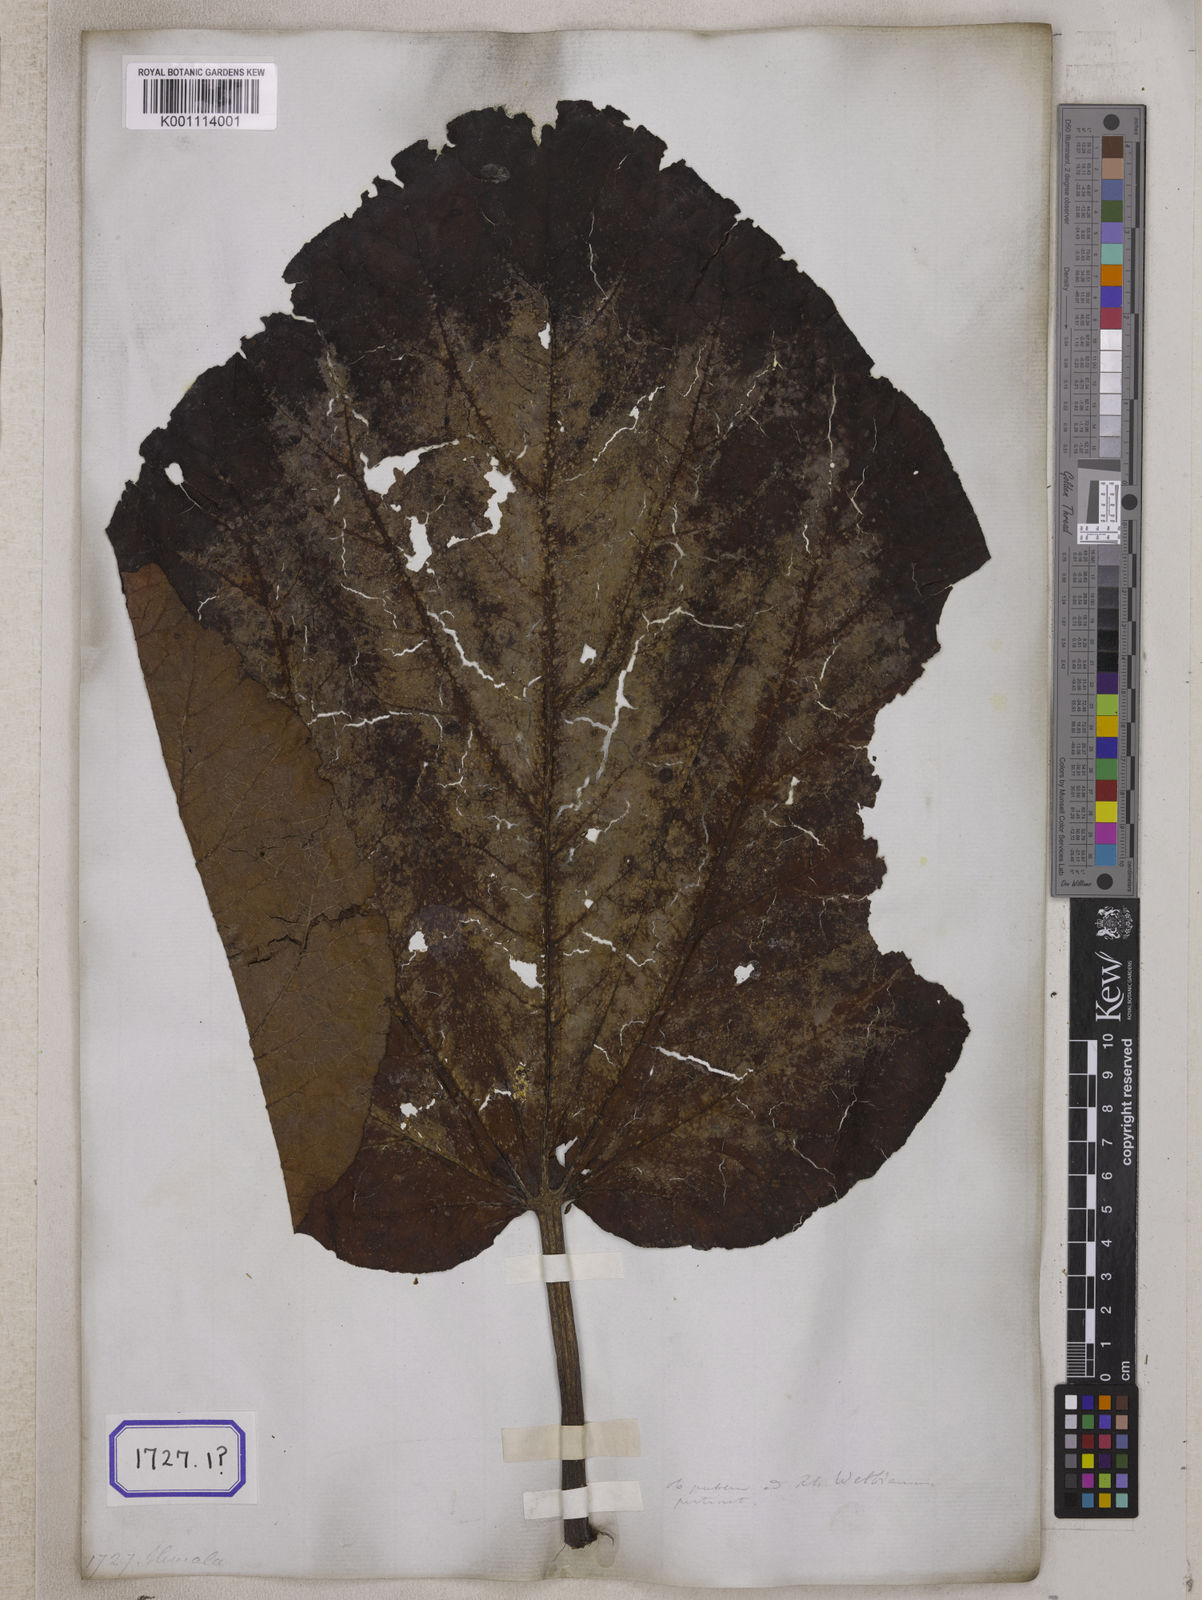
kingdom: Plantae
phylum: Tracheophyta
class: Magnoliopsida
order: Caryophyllales
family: Polygonaceae
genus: Rheum
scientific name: Rheum
